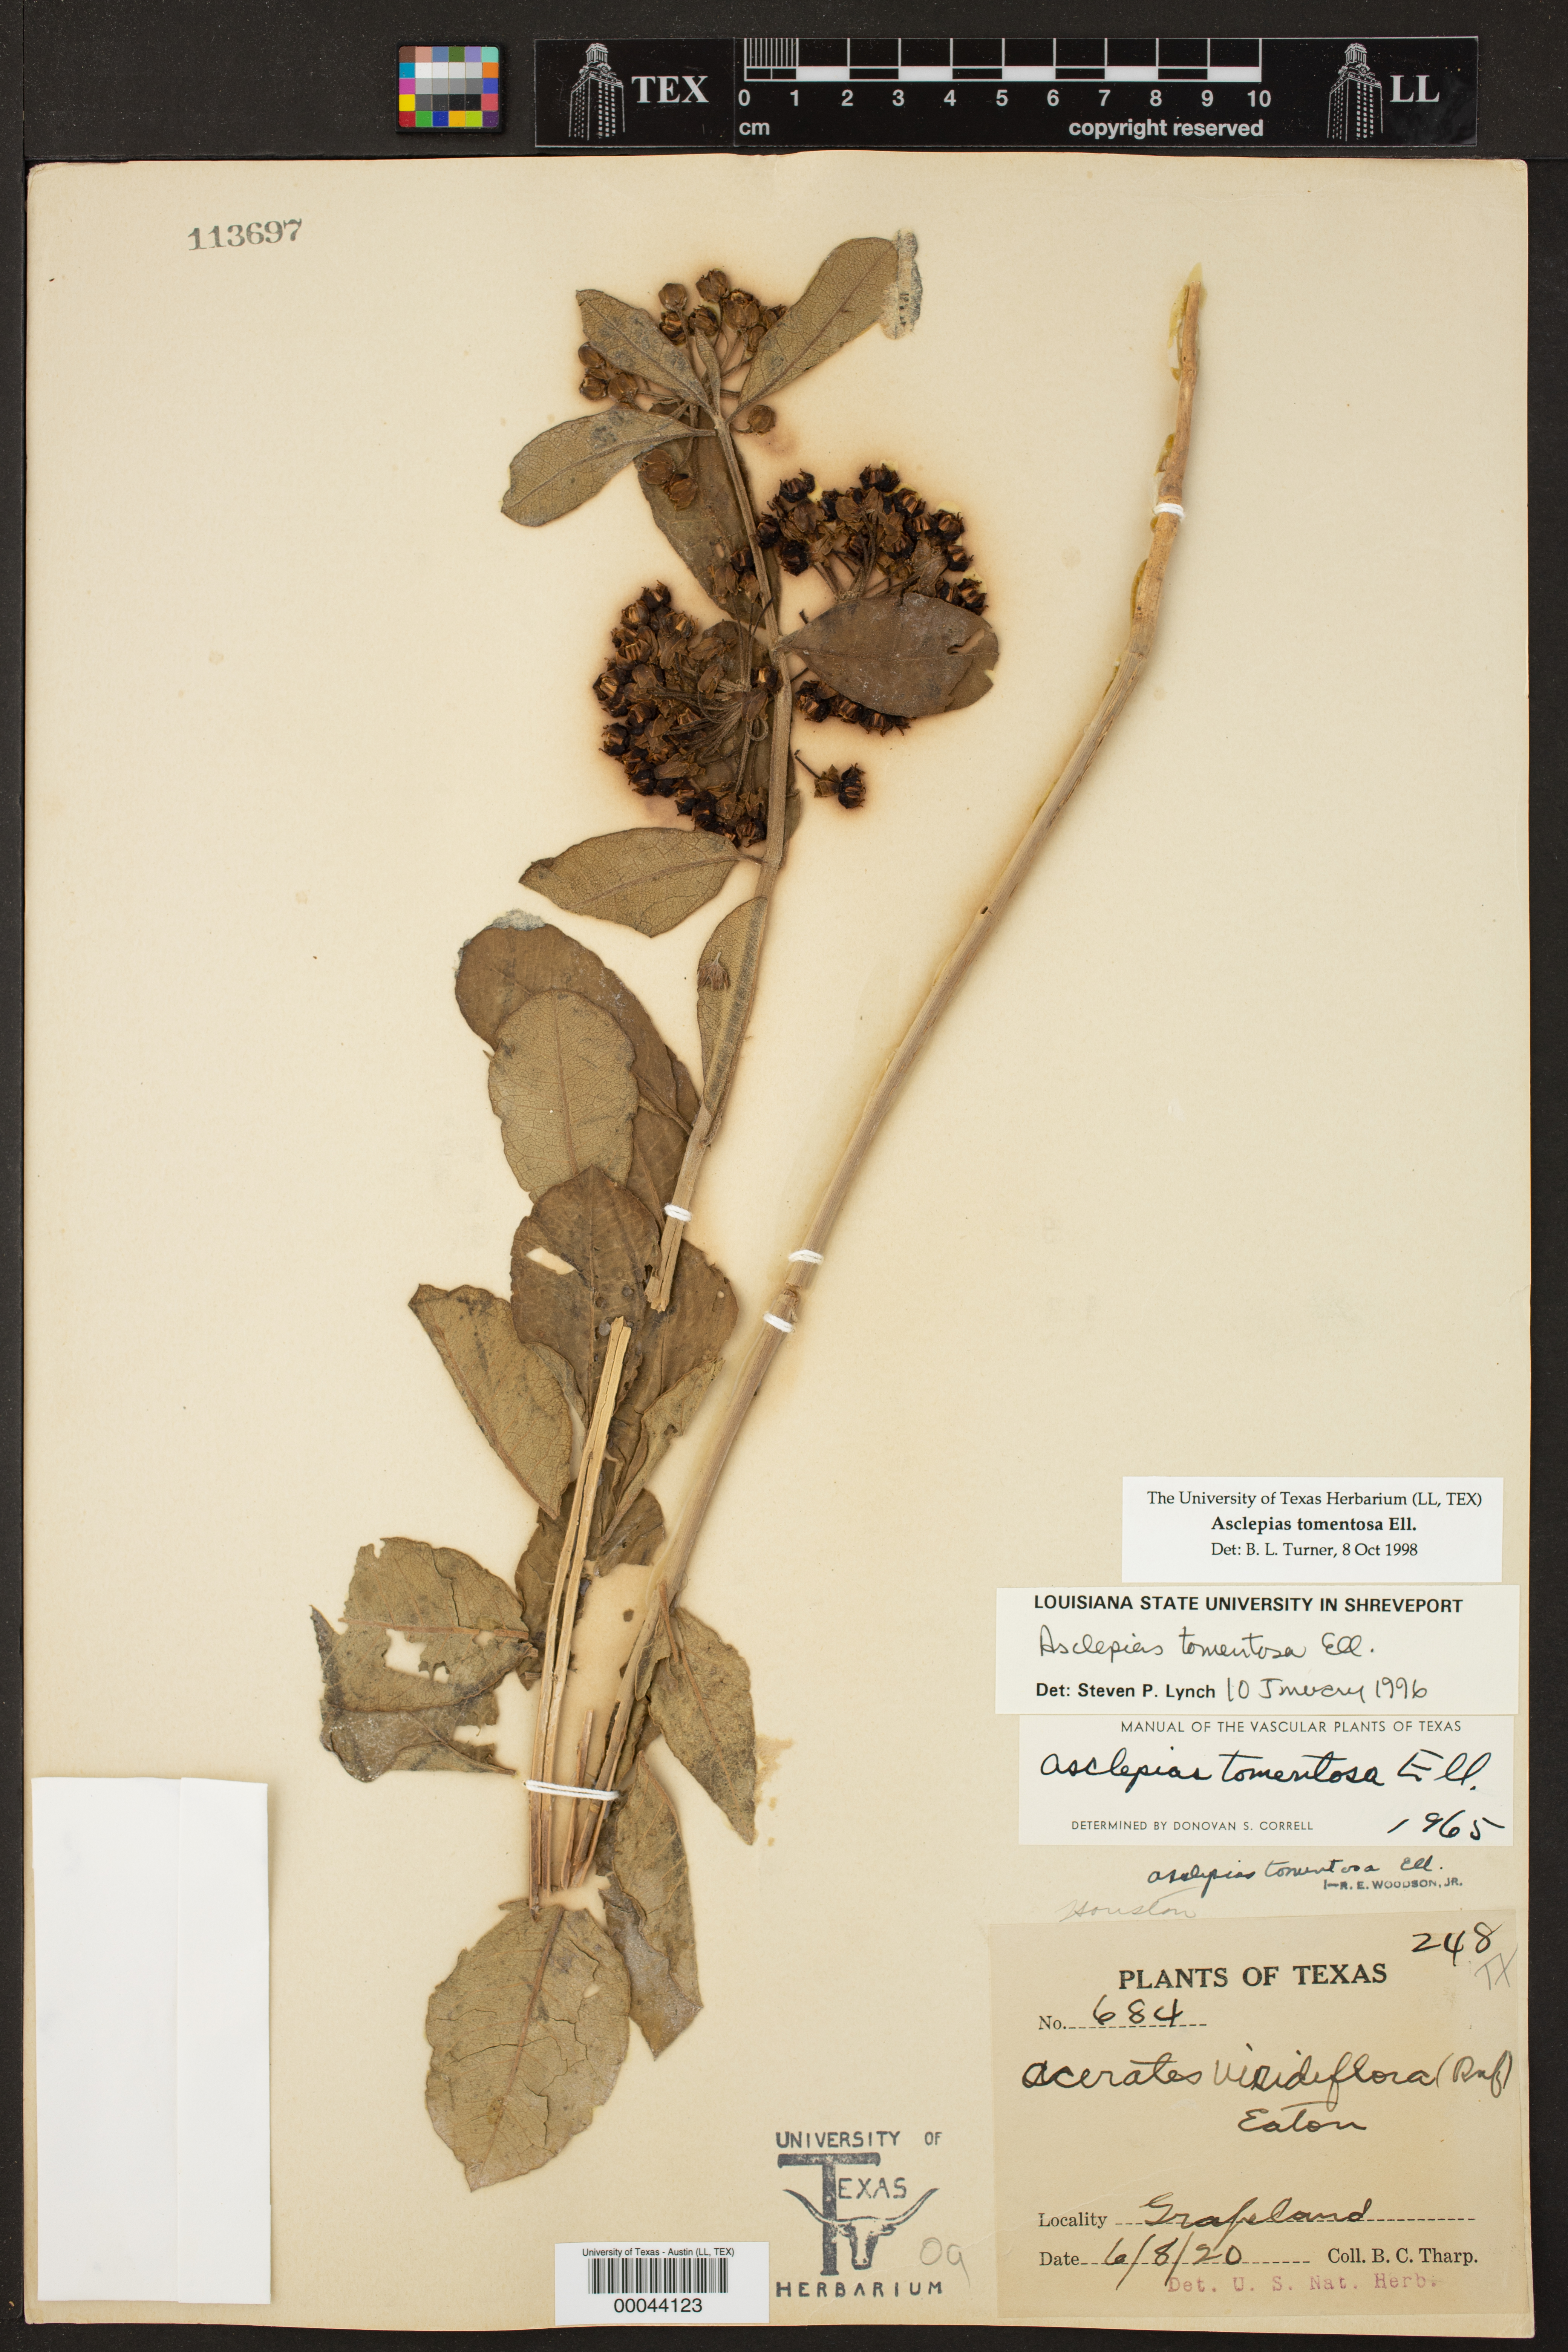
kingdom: Plantae
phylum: Tracheophyta
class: Magnoliopsida
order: Gentianales
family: Apocynaceae
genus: Asclepias
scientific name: Asclepias tomentosa
